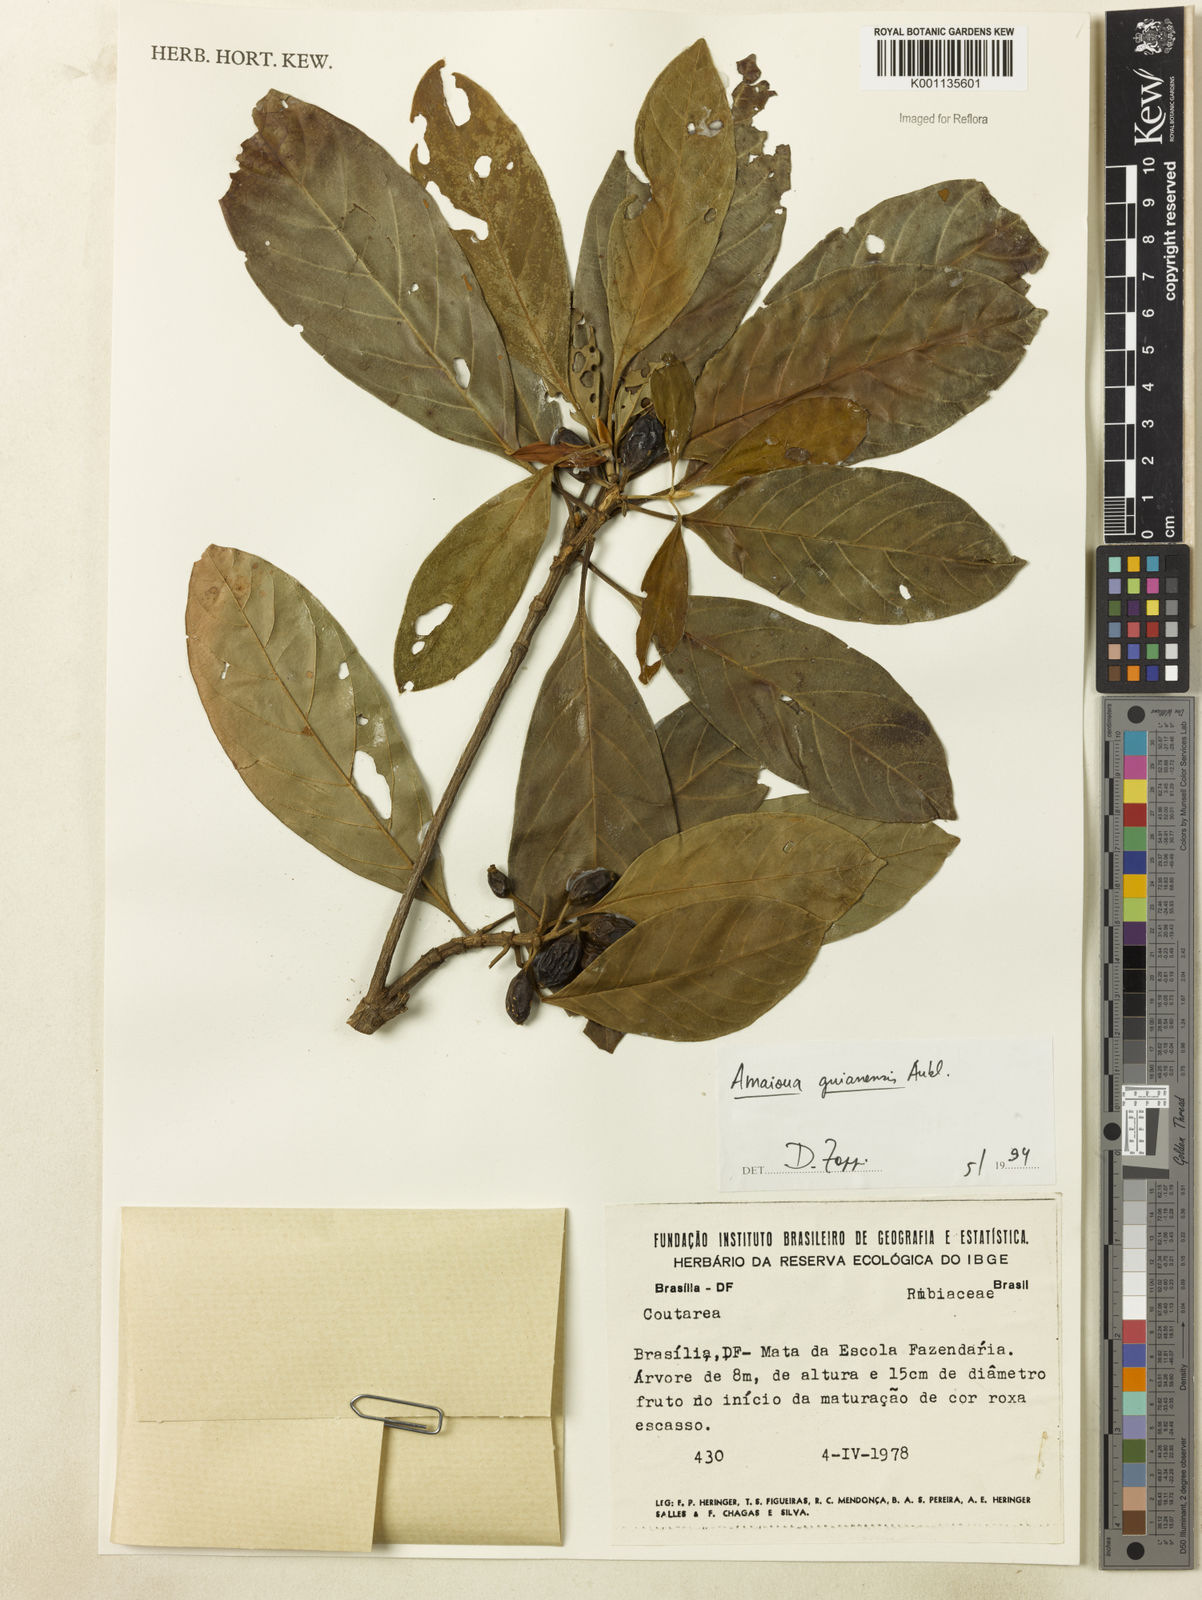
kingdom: Plantae
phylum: Tracheophyta
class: Magnoliopsida
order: Gentianales
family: Rubiaceae
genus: Amaioua
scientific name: Amaioua intermedia
